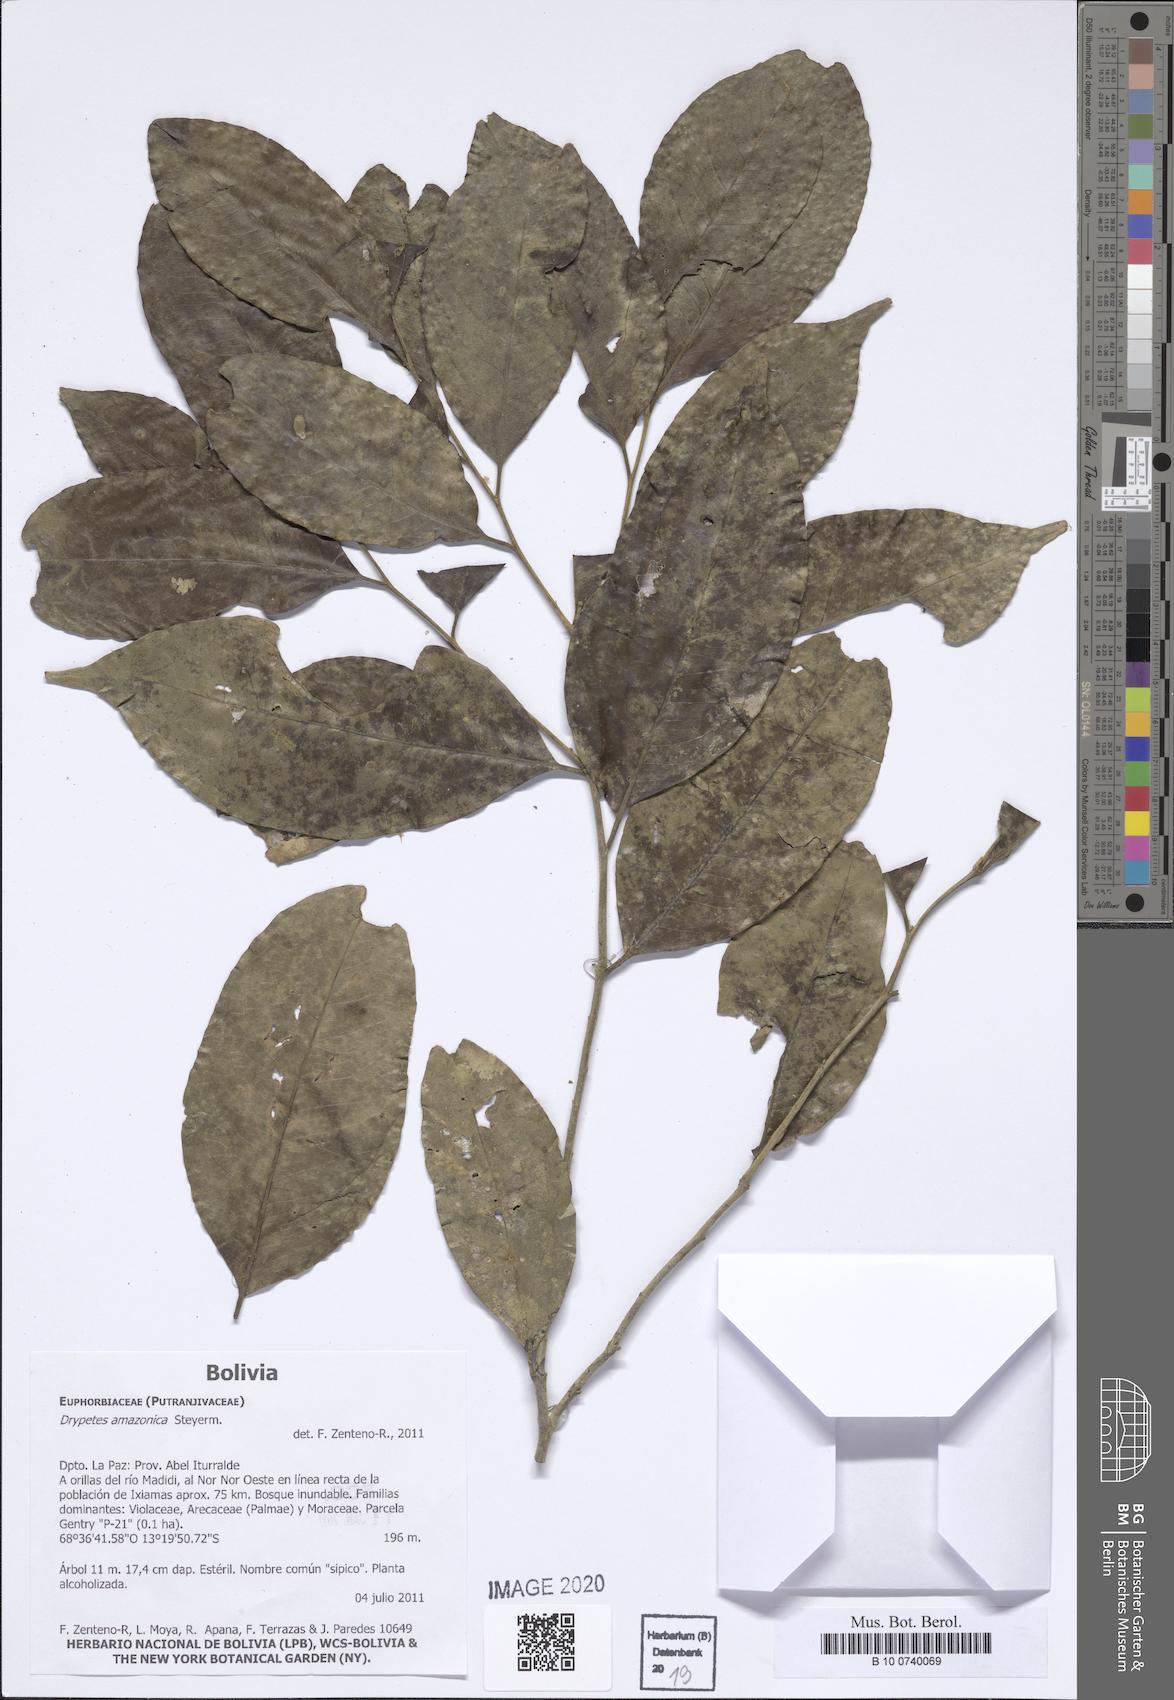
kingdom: Plantae
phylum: Tracheophyta
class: Magnoliopsida
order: Malpighiales
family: Putranjivaceae
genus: Drypetes
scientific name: Drypetes amazonica
